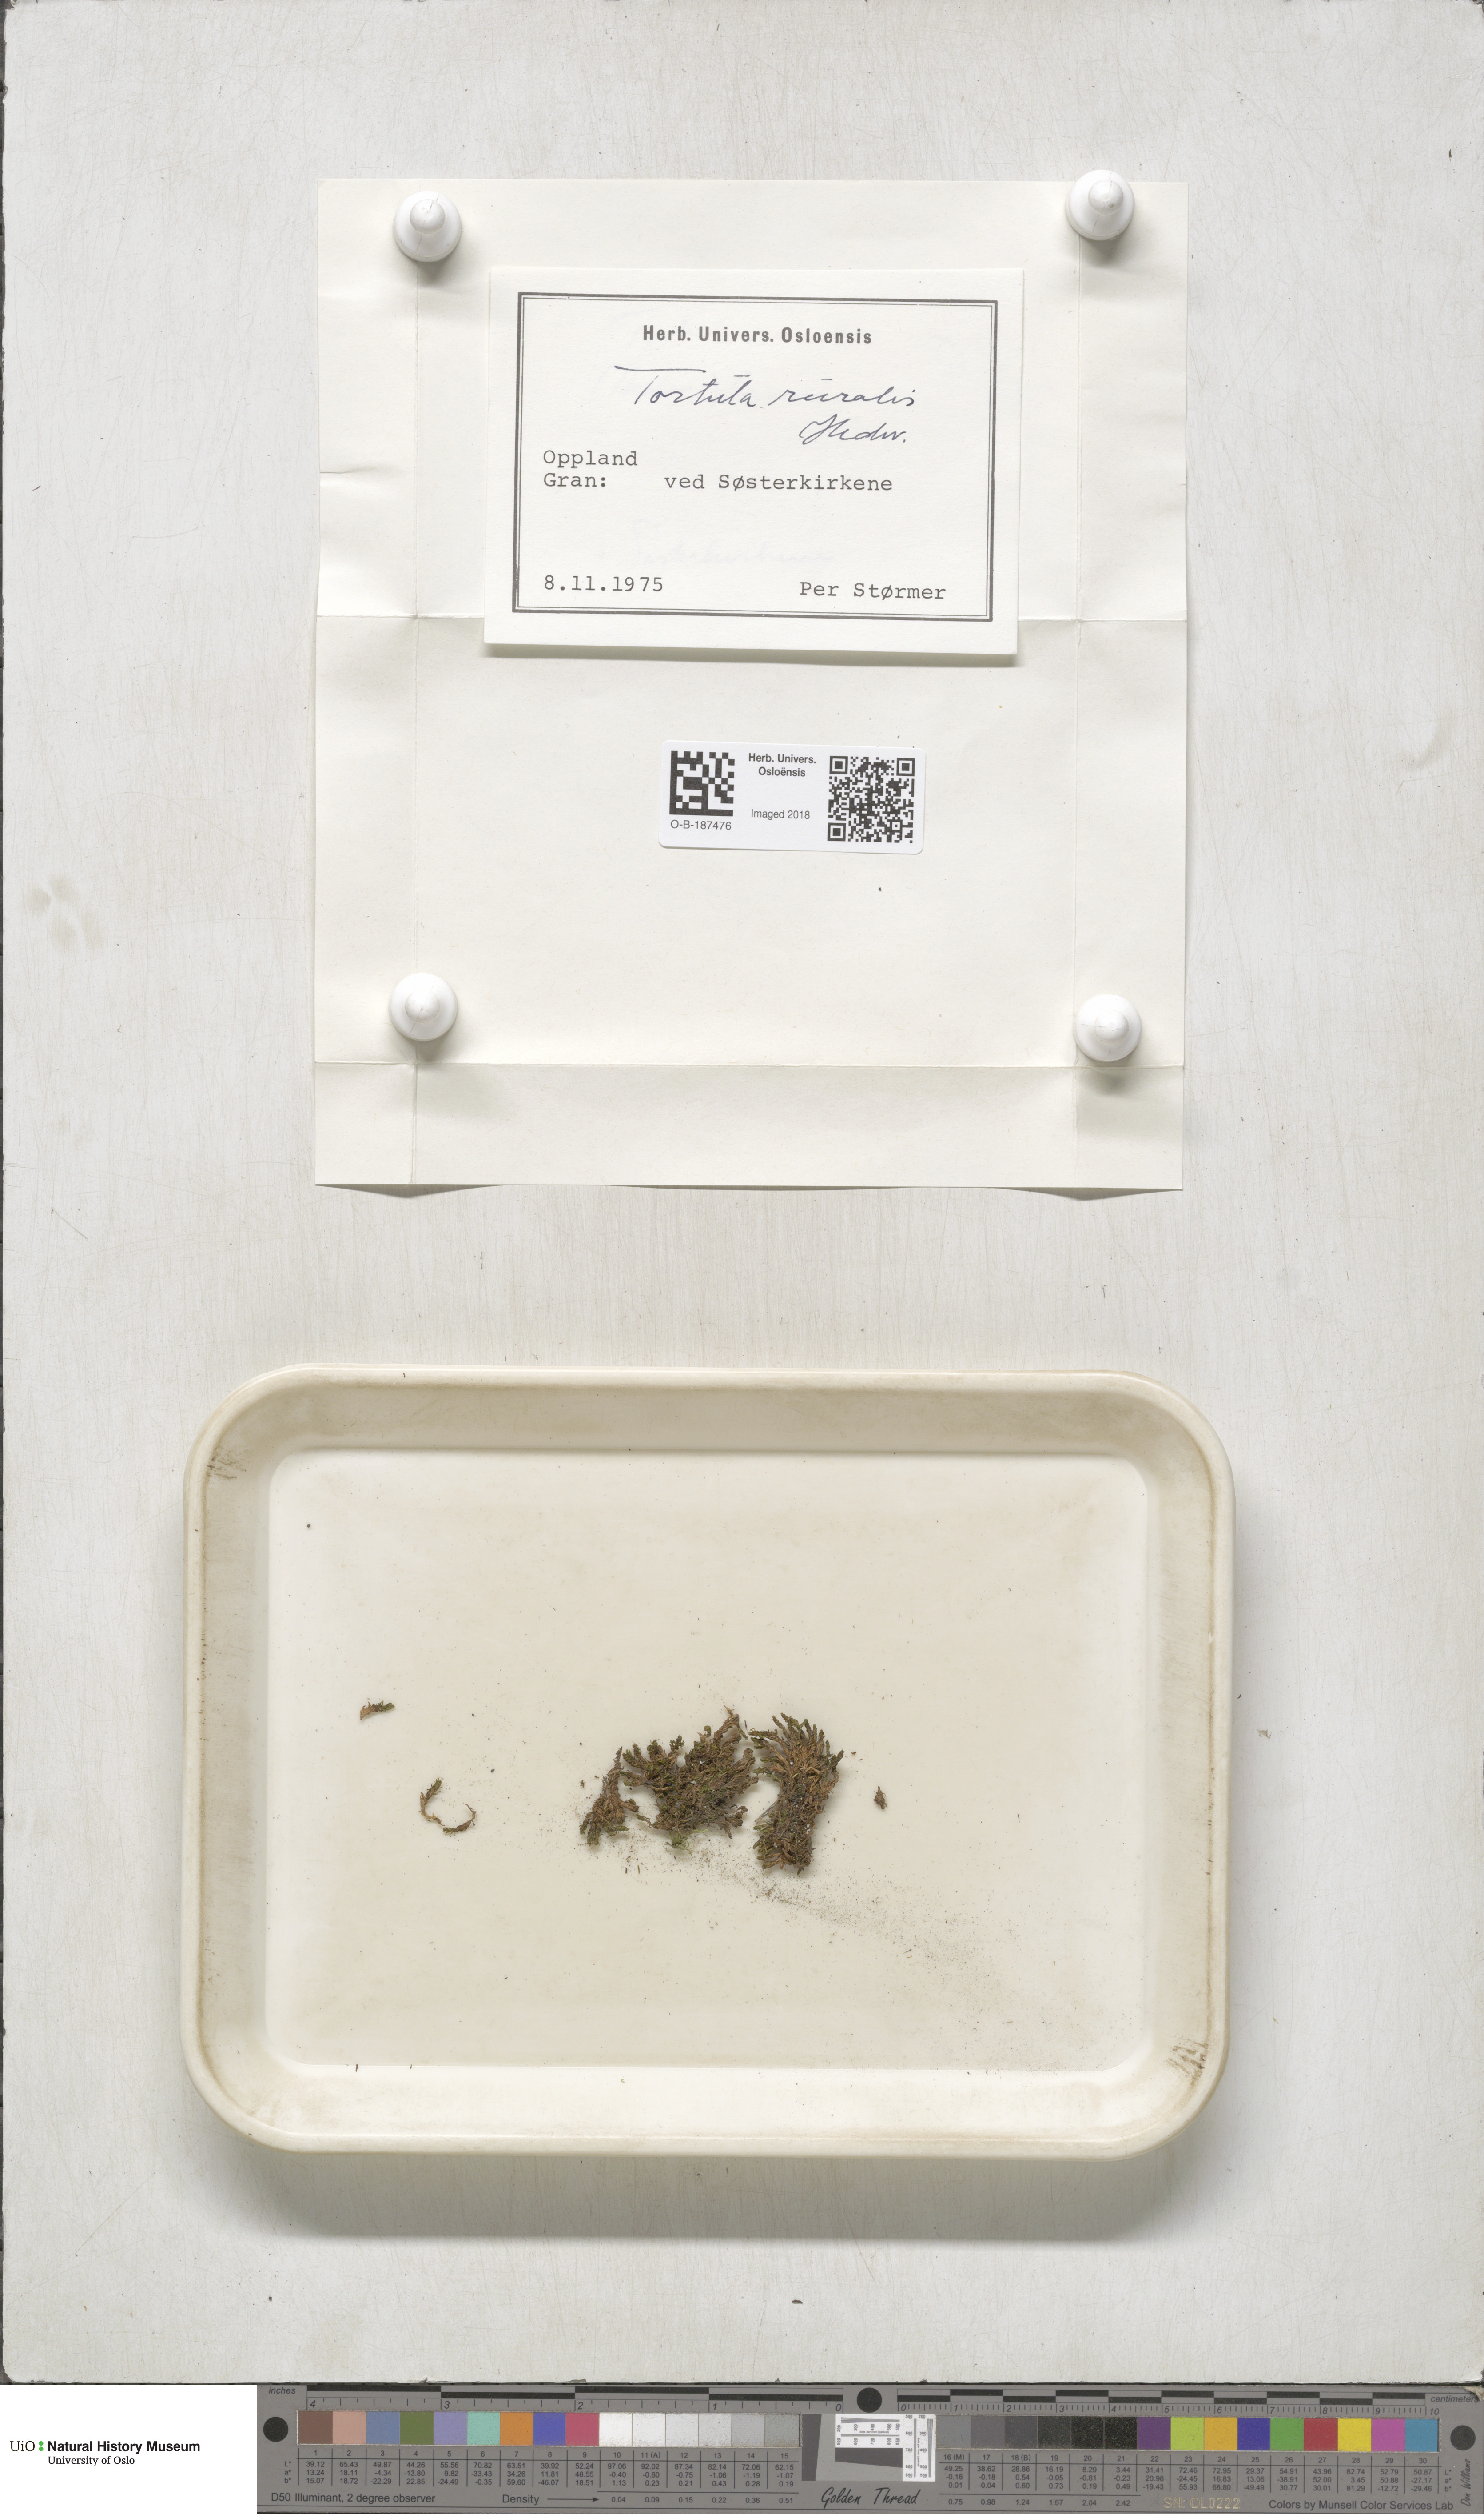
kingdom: Plantae
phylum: Bryophyta
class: Bryopsida
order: Pottiales
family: Pottiaceae
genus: Syntrichia
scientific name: Syntrichia ruralis
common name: Sidewalk screw moss
